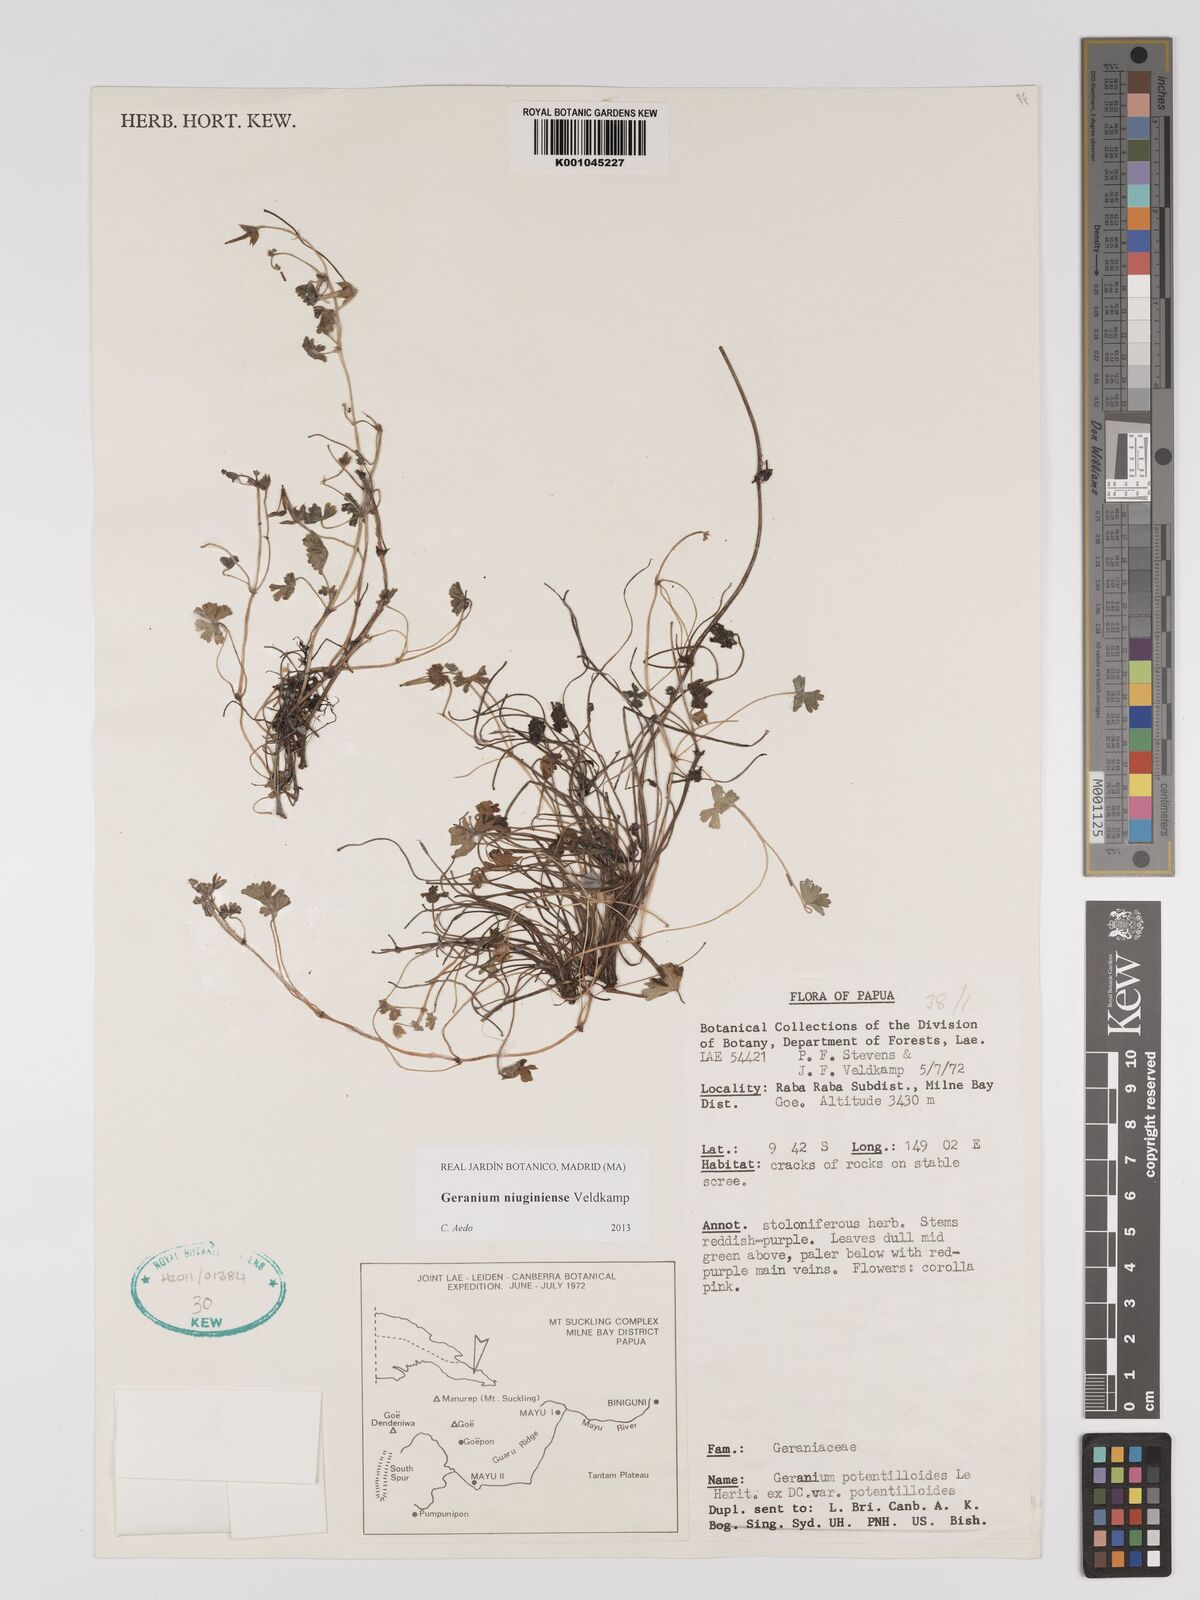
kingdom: Plantae
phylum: Tracheophyta
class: Magnoliopsida
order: Geraniales
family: Geraniaceae
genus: Geranium
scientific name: Geranium niuginiense
